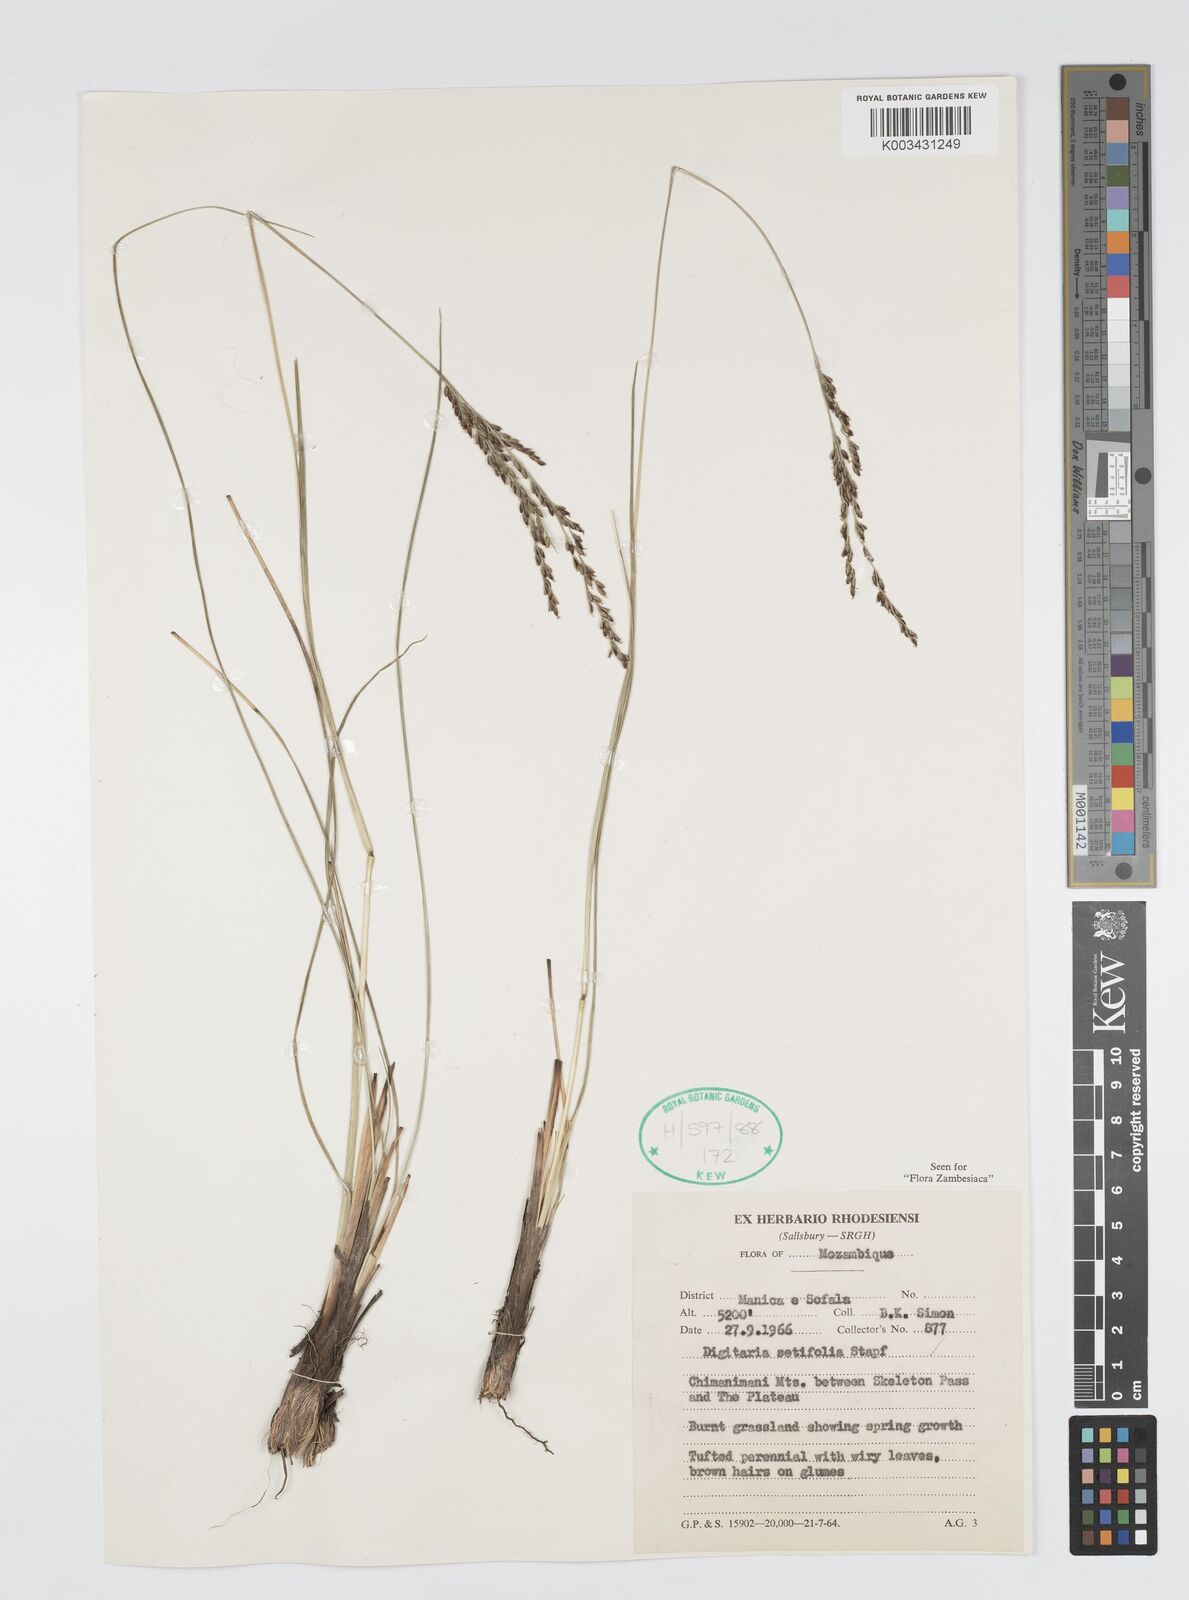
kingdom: Plantae
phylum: Tracheophyta
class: Liliopsida
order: Poales
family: Poaceae
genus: Digitaria
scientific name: Digitaria setifolia
